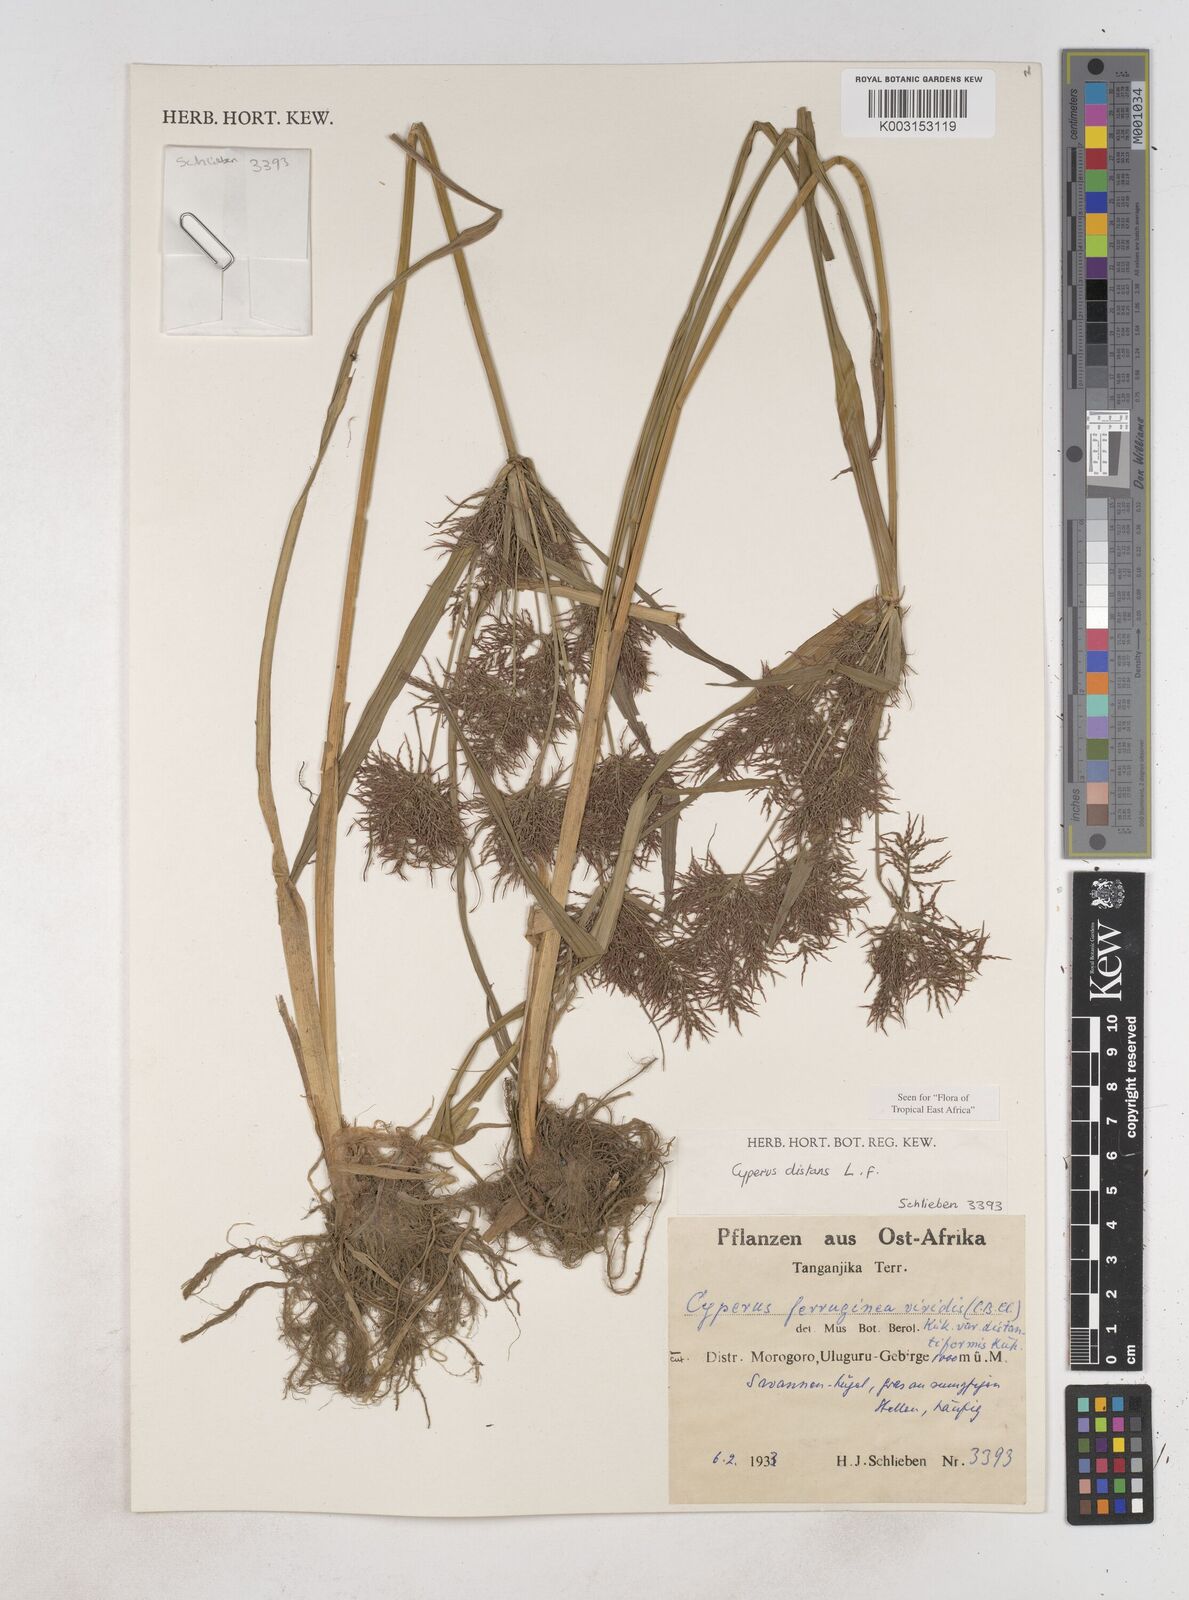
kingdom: Plantae
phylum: Tracheophyta
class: Liliopsida
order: Poales
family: Cyperaceae
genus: Cyperus
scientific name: Cyperus distans
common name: Slender cyperus
